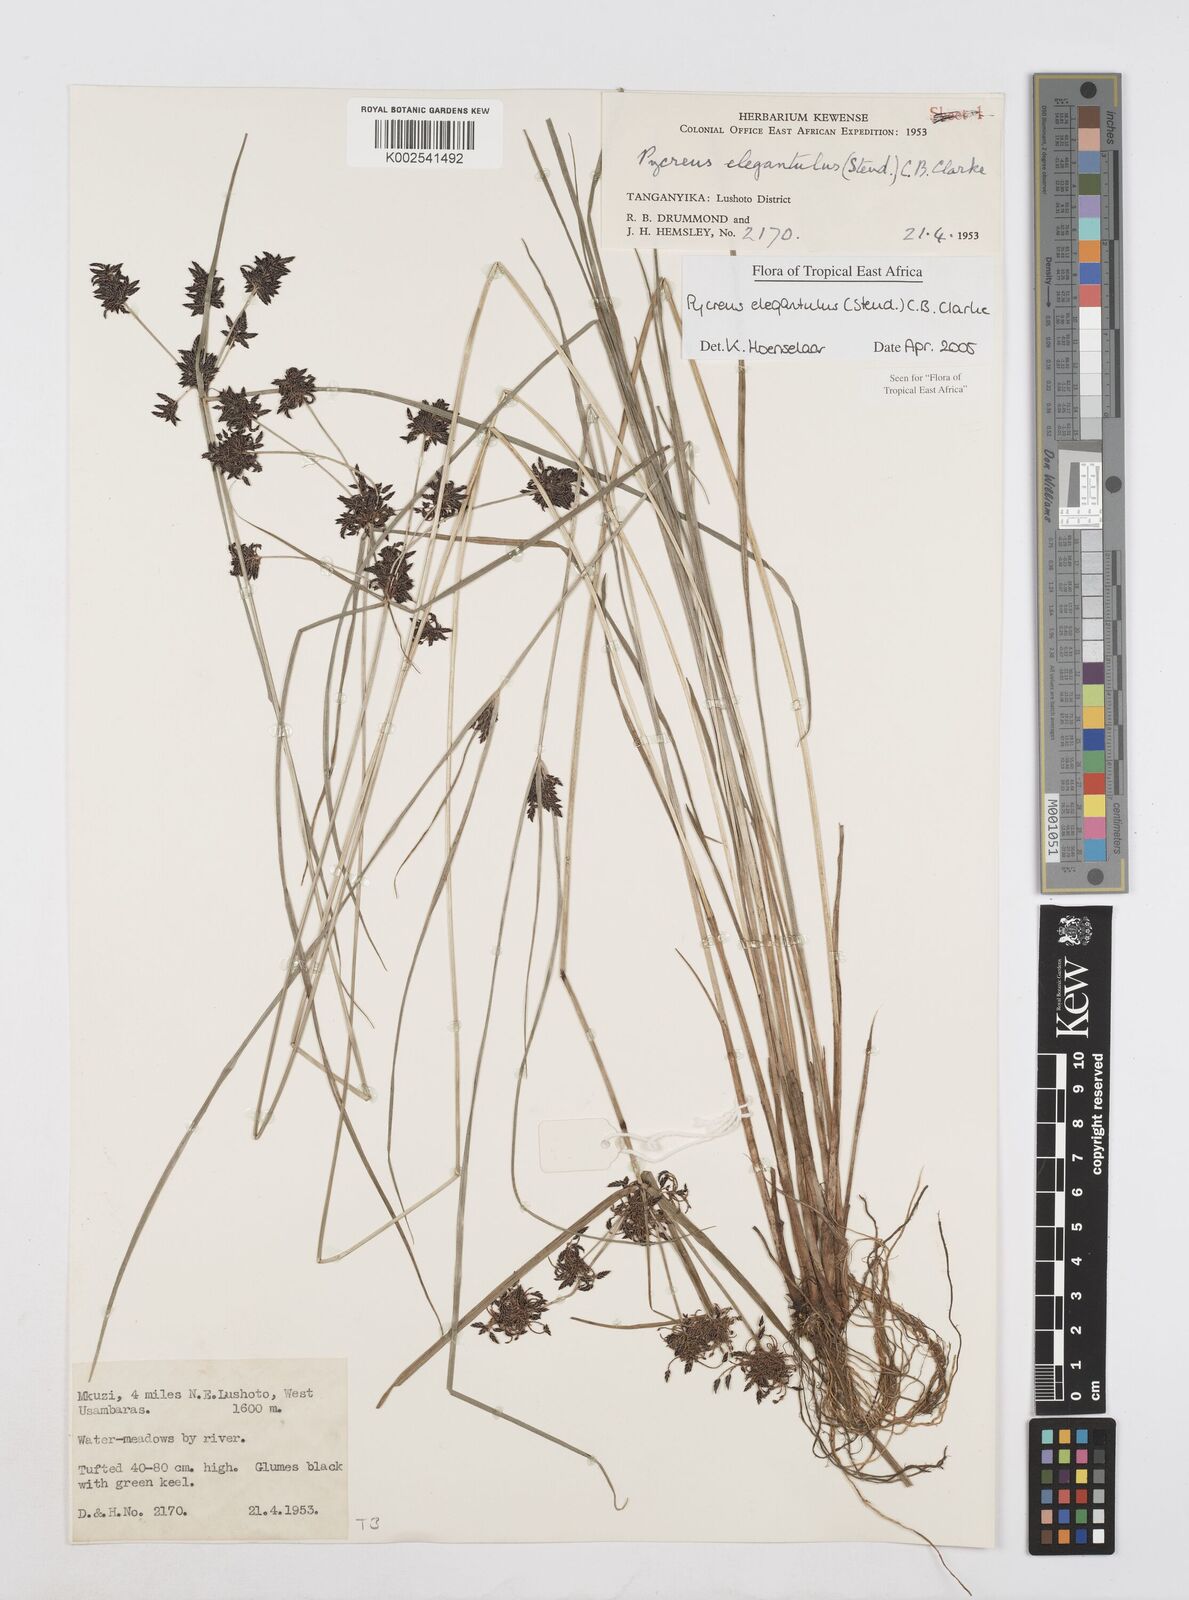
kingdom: Plantae
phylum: Tracheophyta
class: Liliopsida
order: Poales
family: Cyperaceae
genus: Cyperus
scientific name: Cyperus elegantulus
